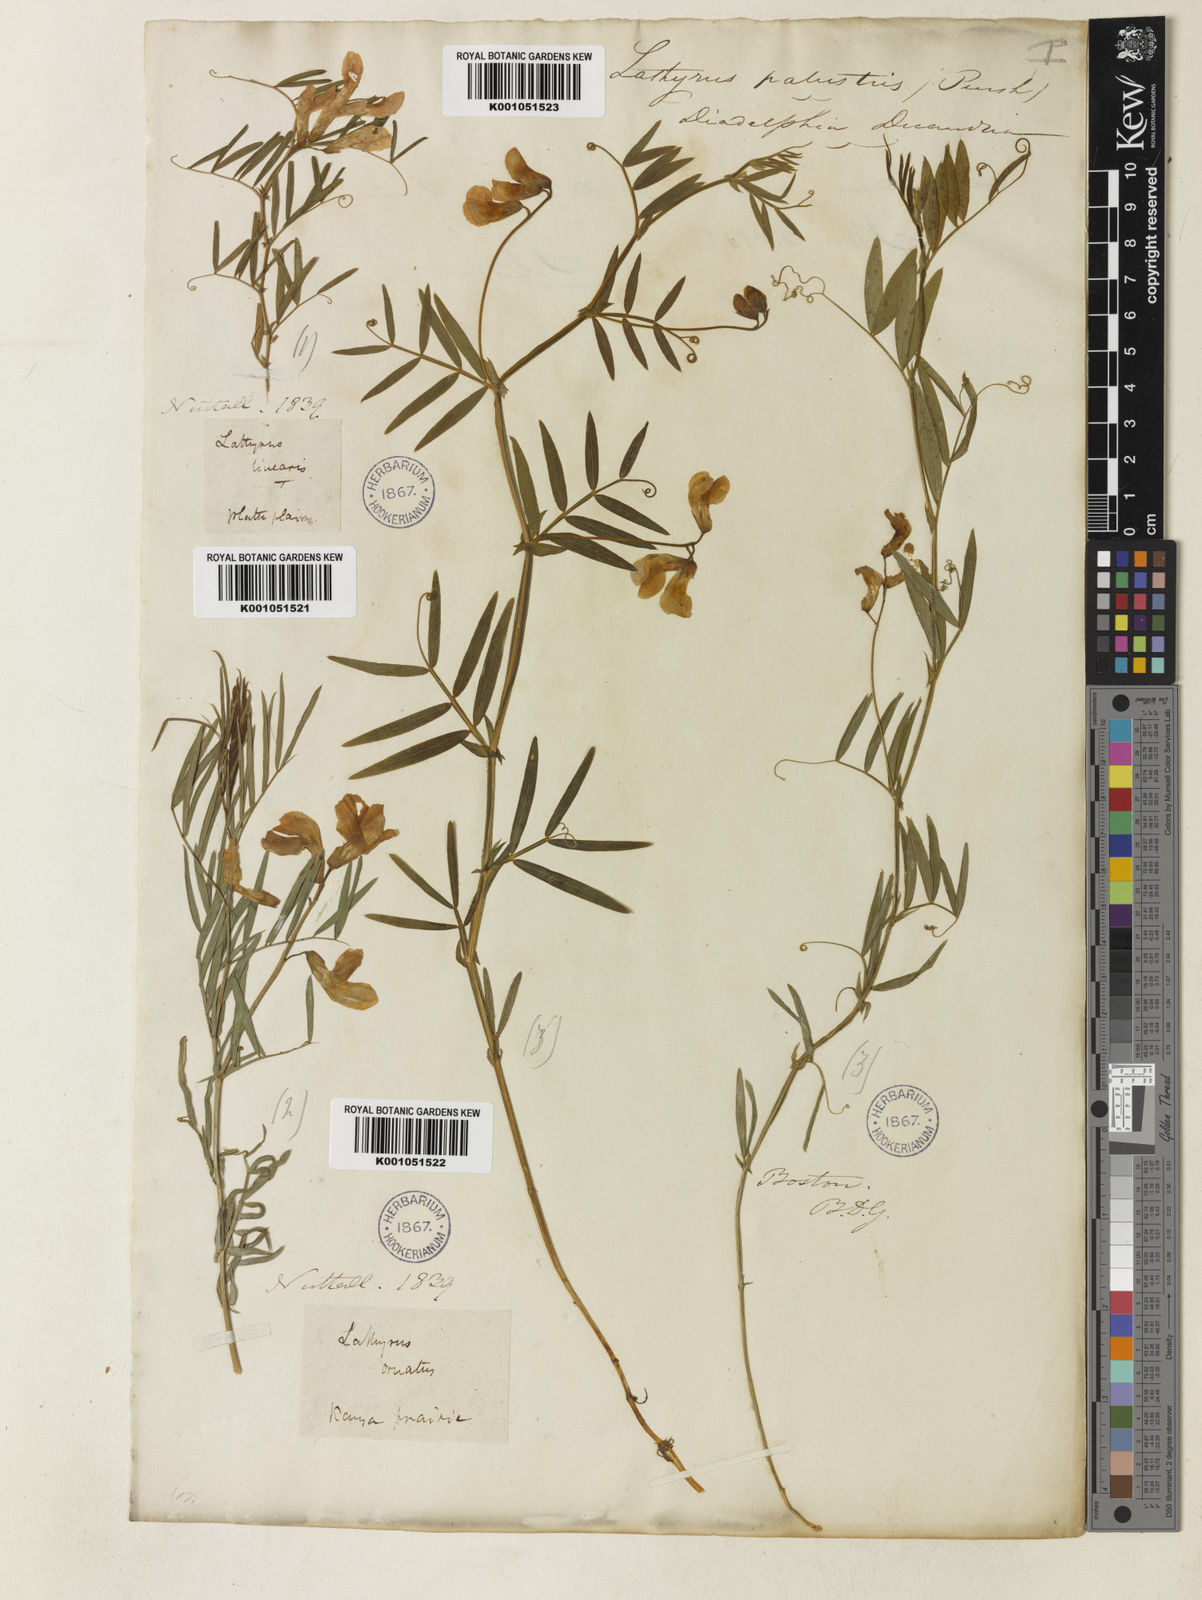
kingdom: Plantae
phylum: Tracheophyta
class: Magnoliopsida
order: Fabales
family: Fabaceae
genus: Lathyrus
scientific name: Lathyrus decaphyllus
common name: Prairie vetchling
